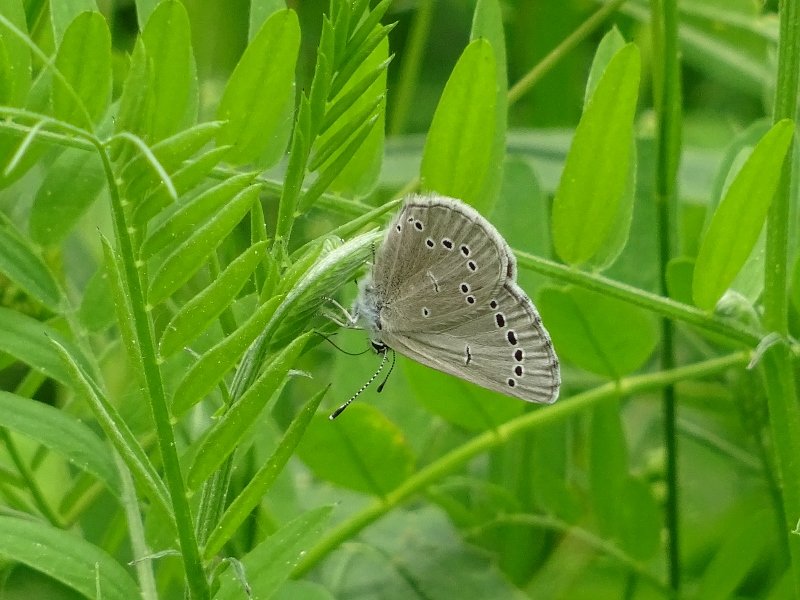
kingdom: Animalia
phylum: Arthropoda
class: Insecta
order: Lepidoptera
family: Lycaenidae
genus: Glaucopsyche
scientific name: Glaucopsyche lygdamus
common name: Silvery Blue
